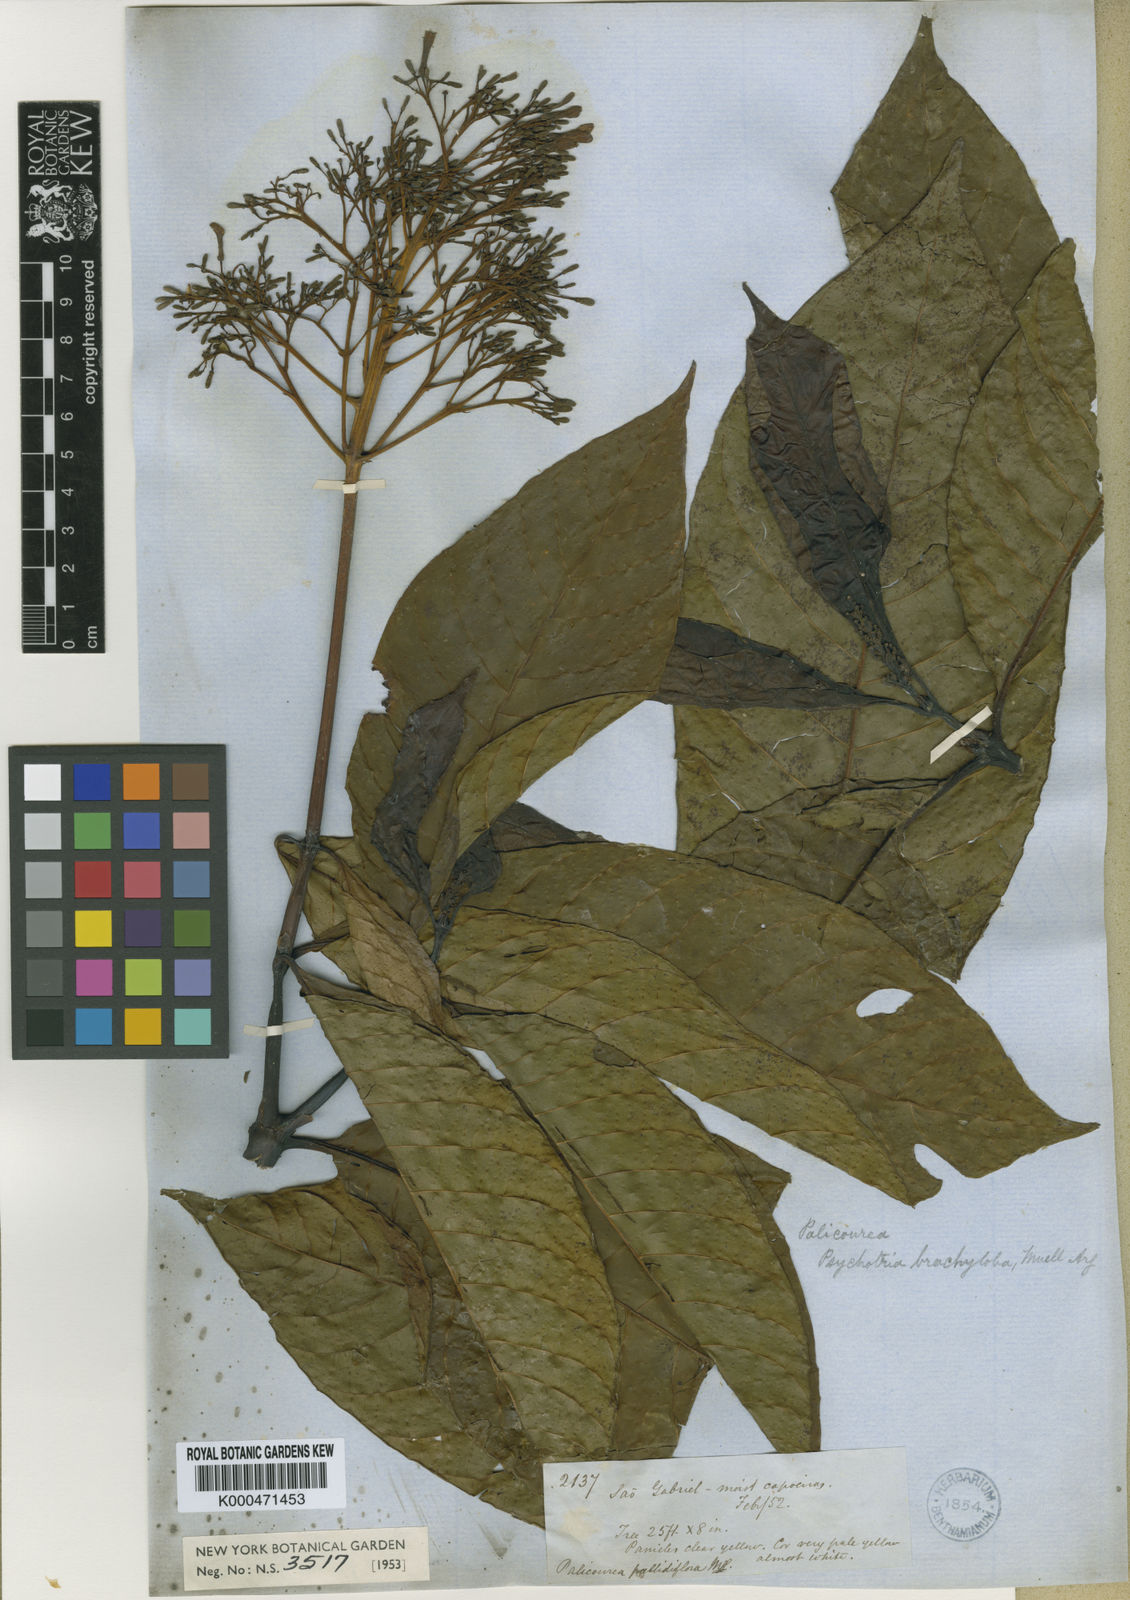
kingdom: Plantae
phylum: Tracheophyta
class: Magnoliopsida
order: Gentianales
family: Rubiaceae
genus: Palicourea
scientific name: Palicourea
